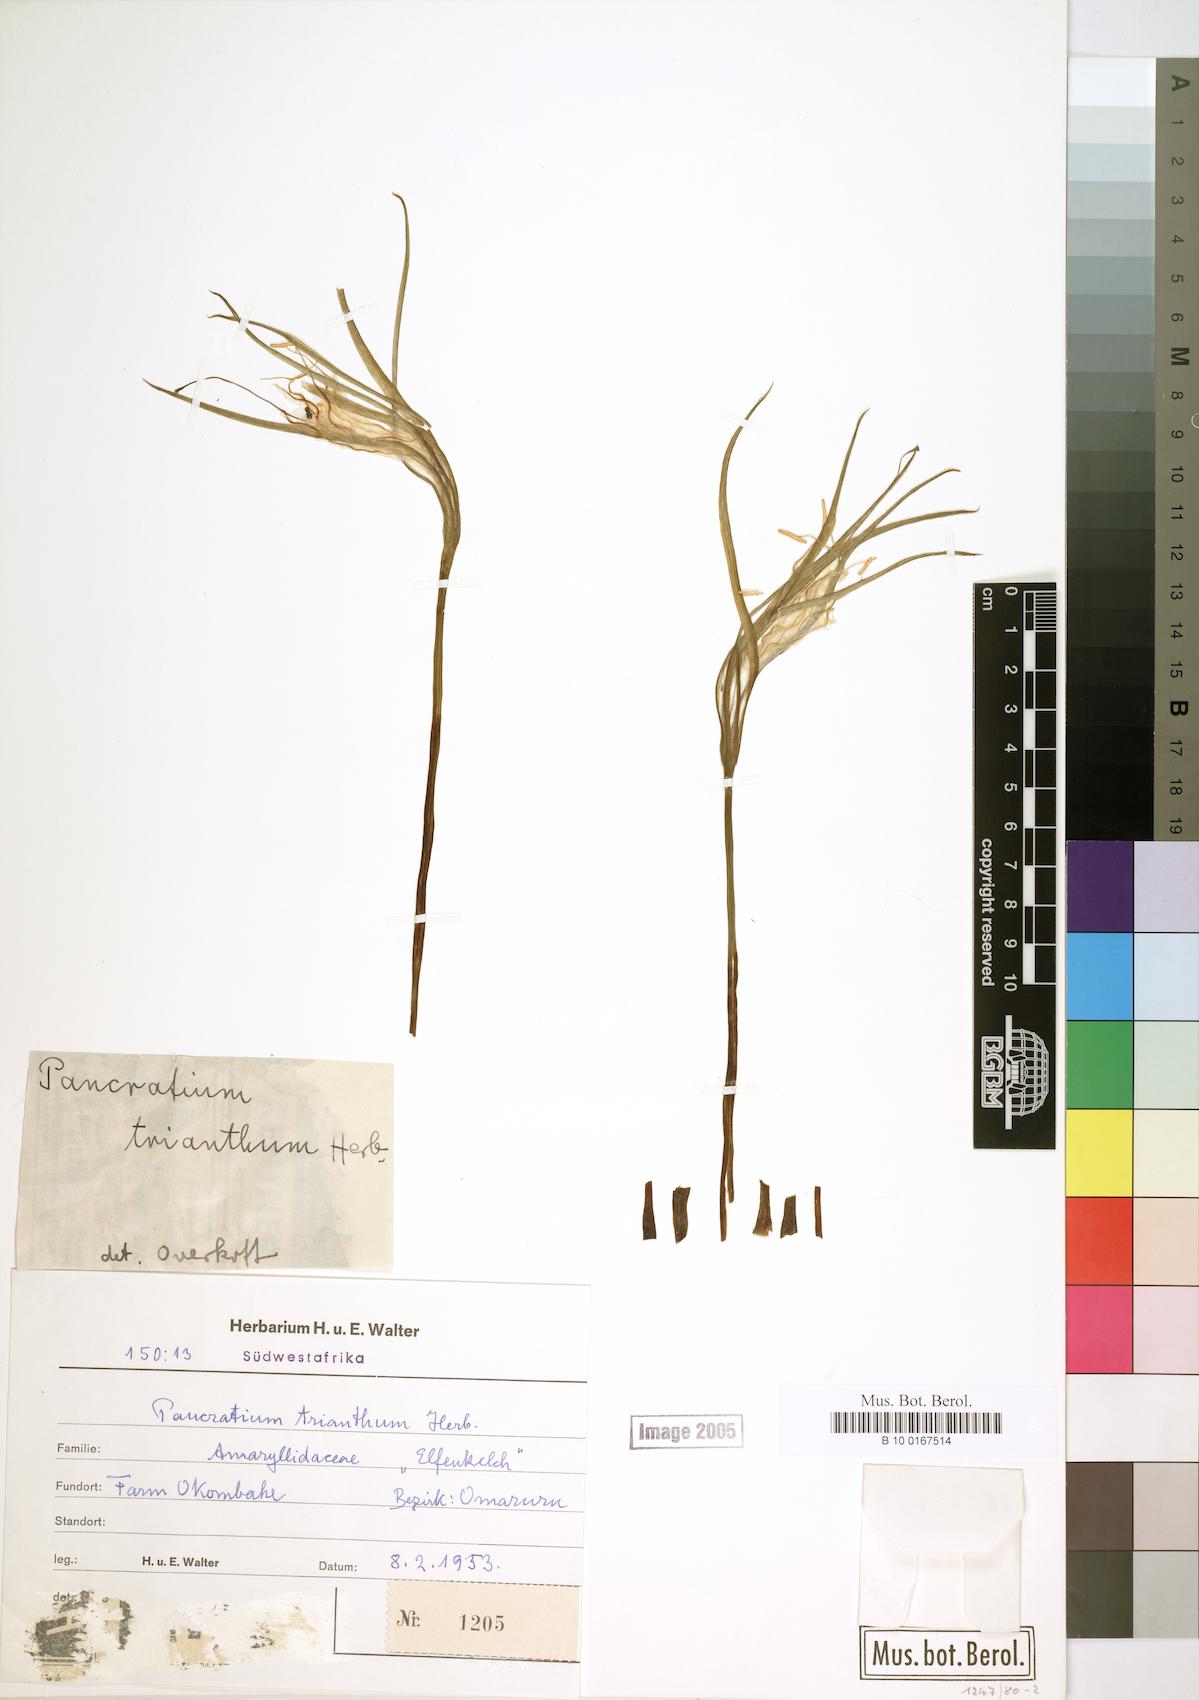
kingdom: Plantae
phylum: Tracheophyta
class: Liliopsida
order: Asparagales
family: Amaryllidaceae
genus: Pancratium
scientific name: Pancratium trianthum
